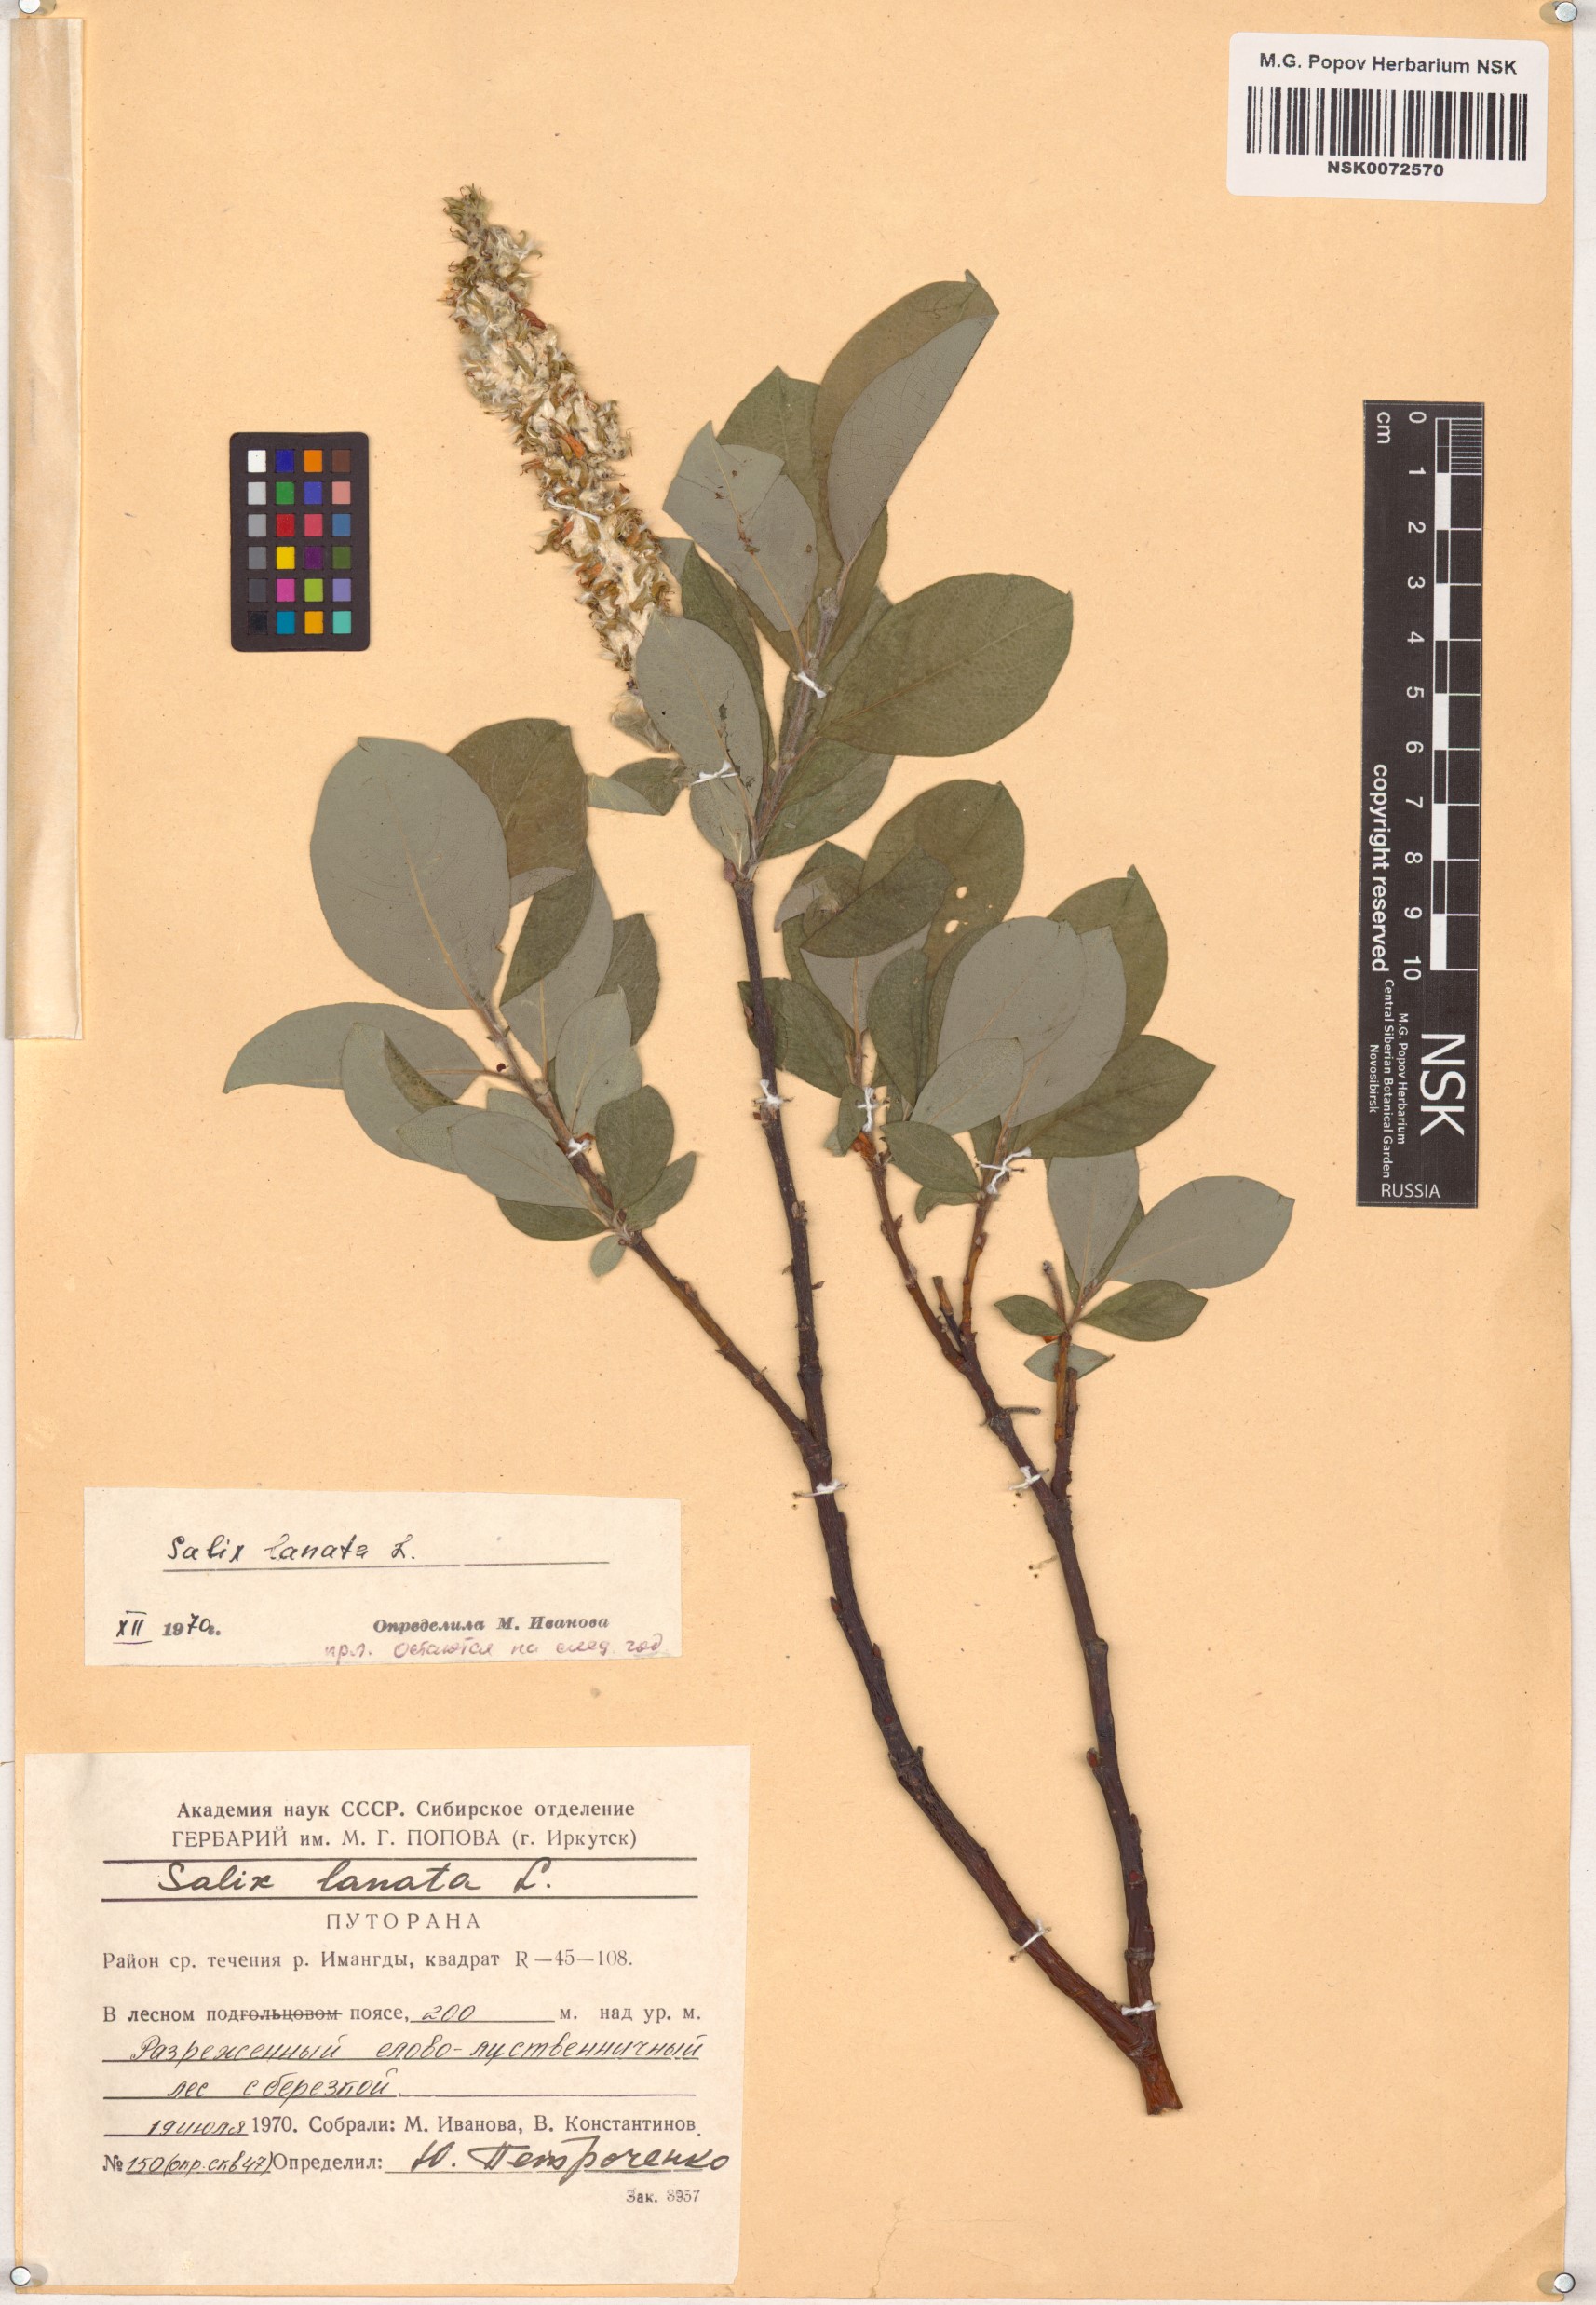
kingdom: Plantae
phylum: Tracheophyta
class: Magnoliopsida
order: Malpighiales
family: Salicaceae
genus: Salix
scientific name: Salix lanata
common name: Woolly willow
